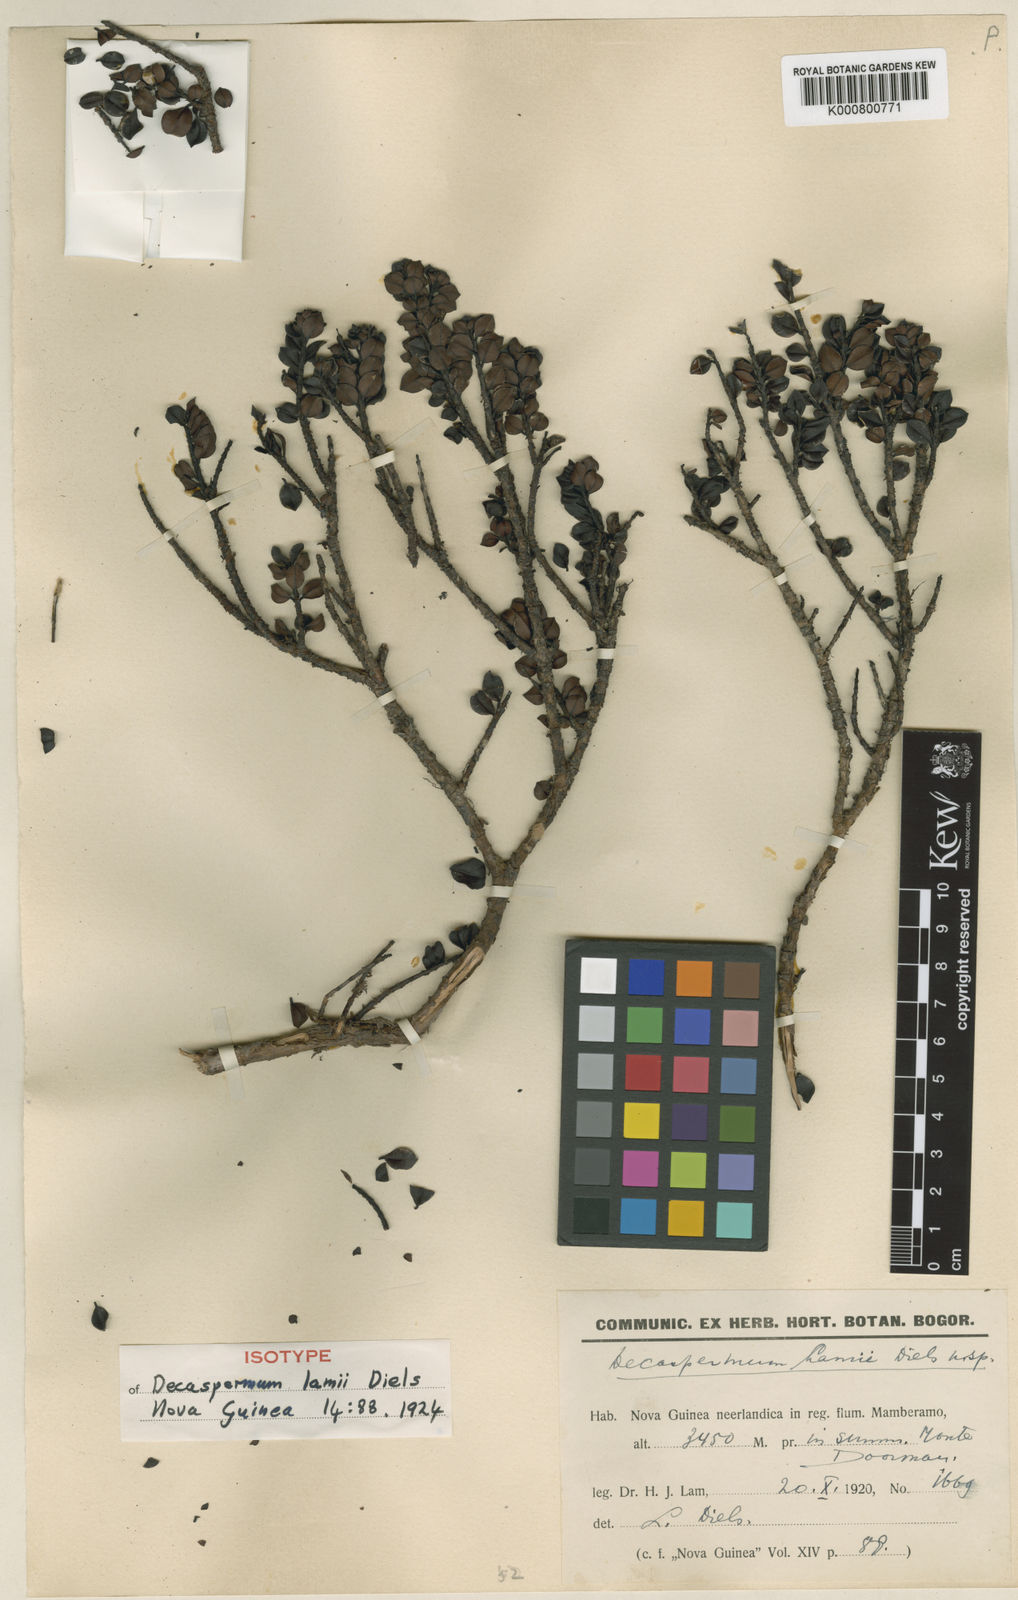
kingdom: Plantae
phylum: Tracheophyta
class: Magnoliopsida
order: Myrtales
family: Myrtaceae
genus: Decaspermum
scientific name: Decaspermum nivale
